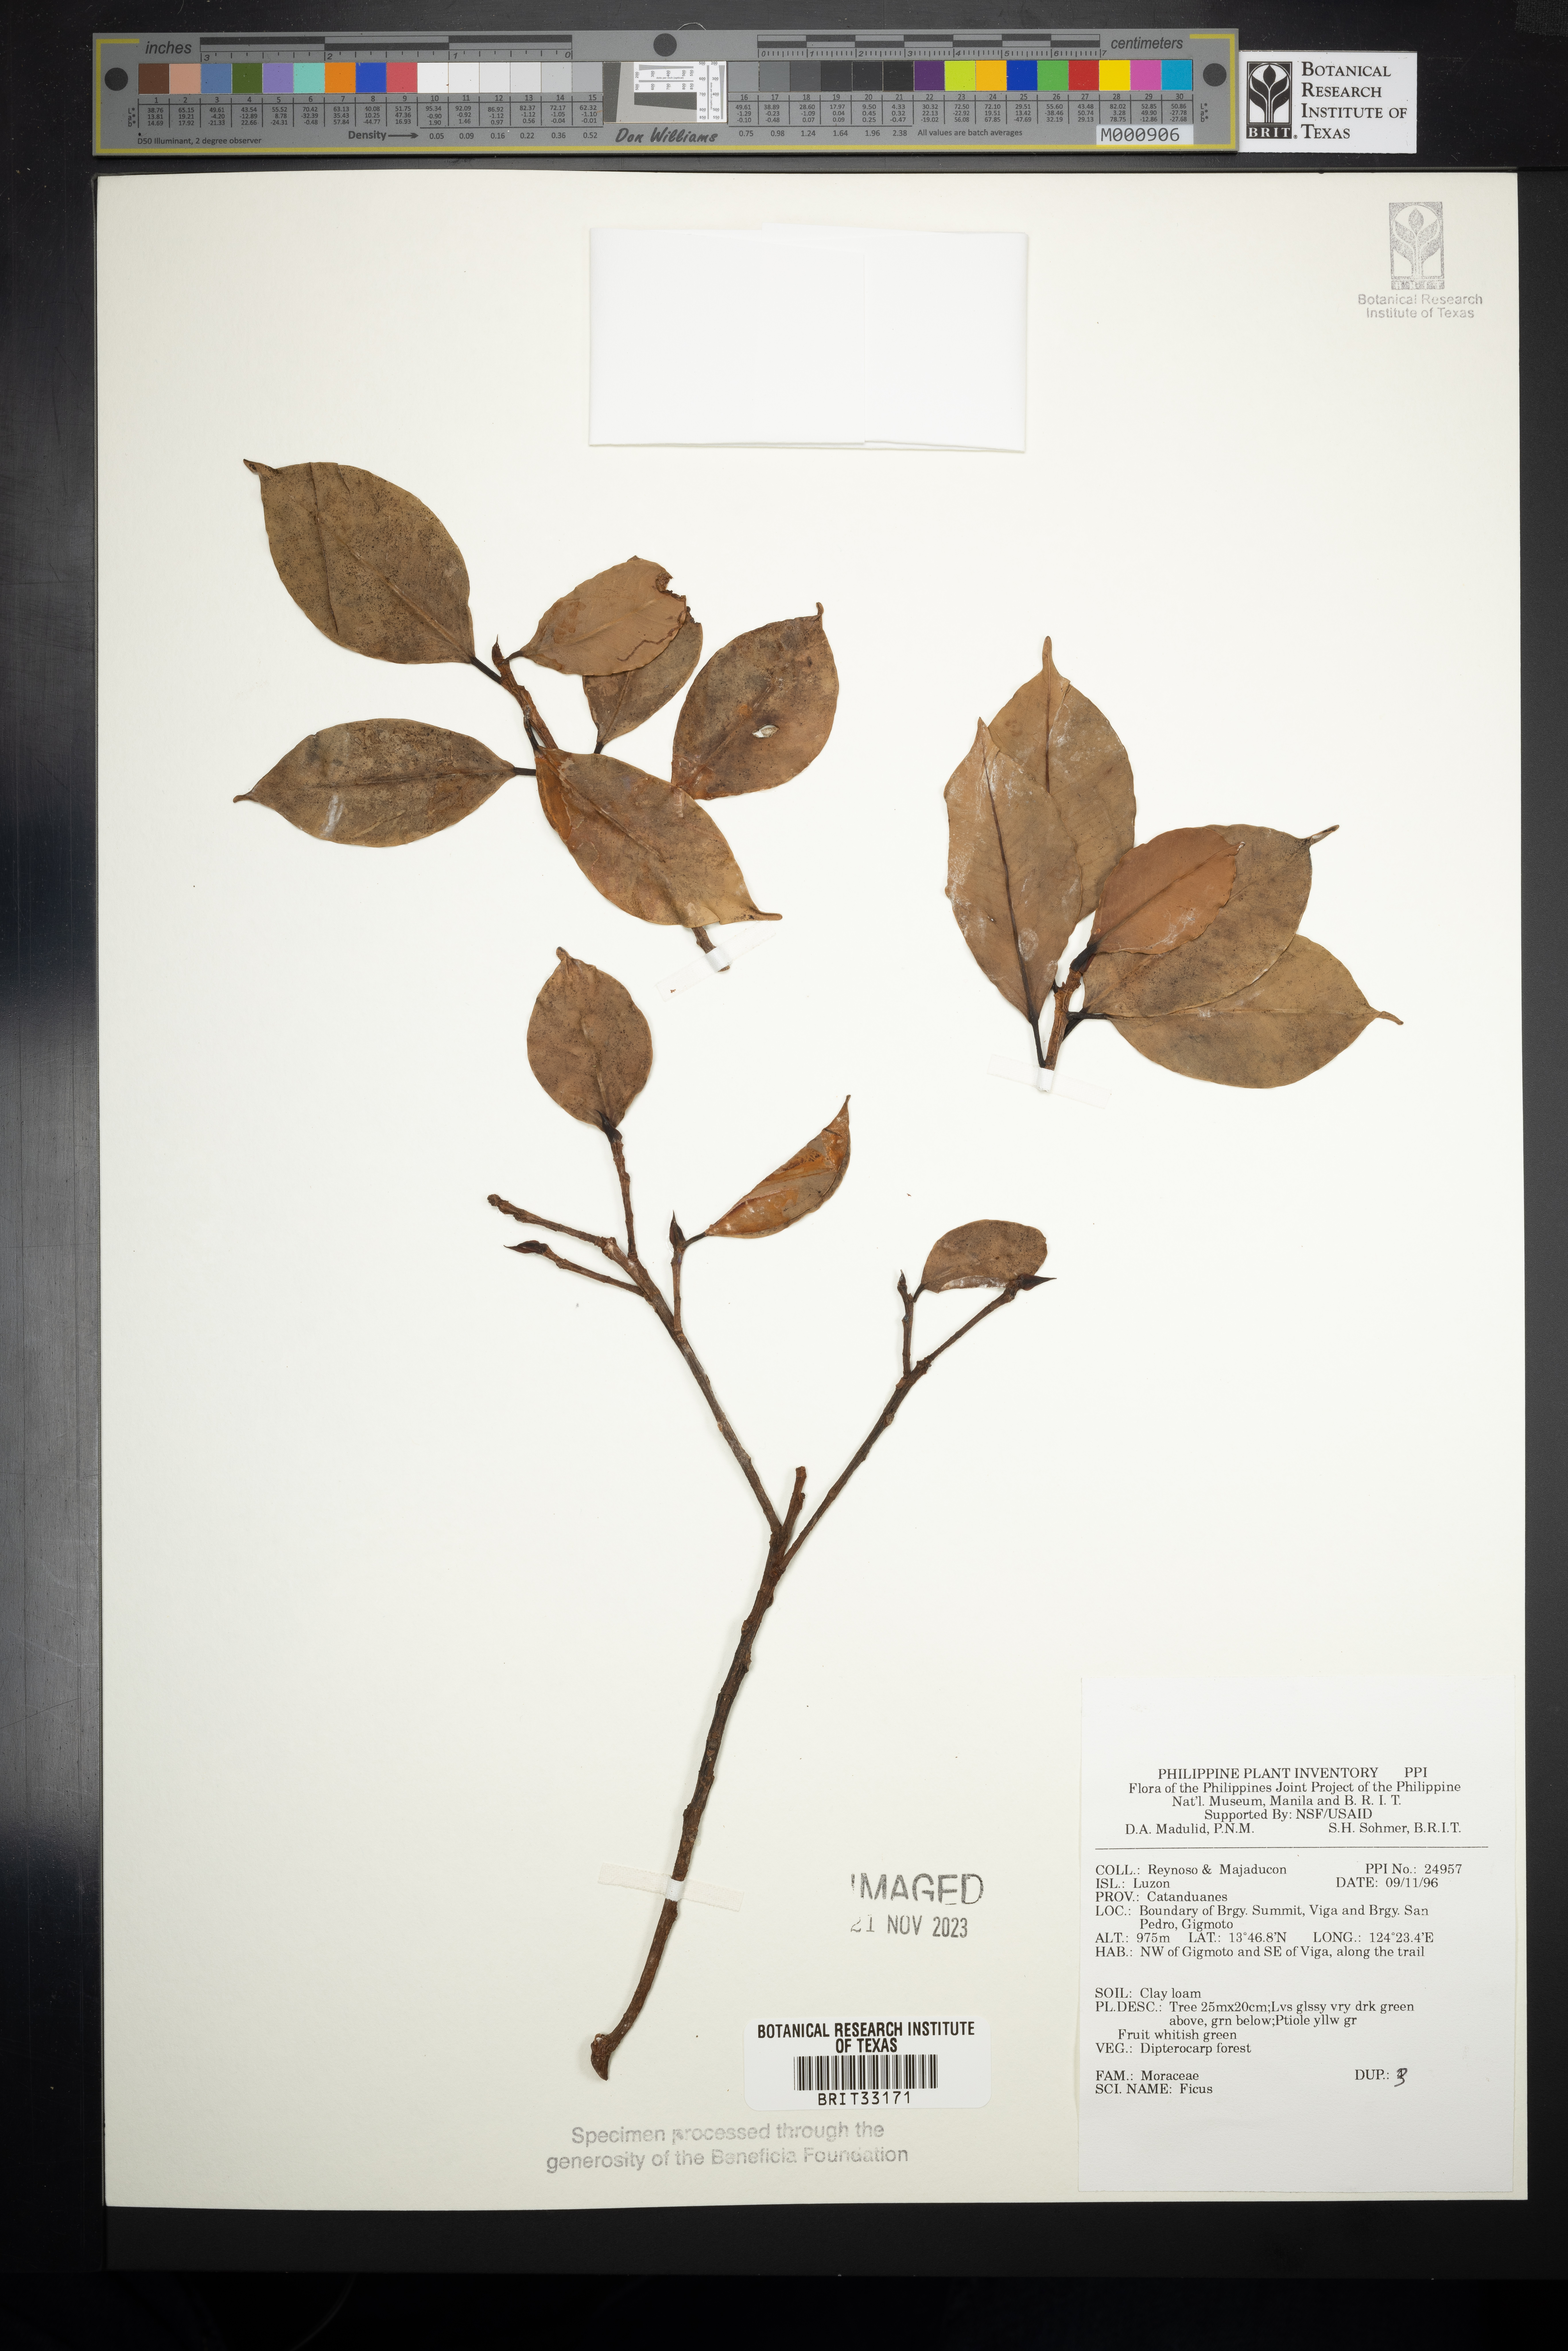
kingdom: Plantae
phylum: Tracheophyta
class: Magnoliopsida
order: Rosales
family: Moraceae
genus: Ficus
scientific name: Ficus
